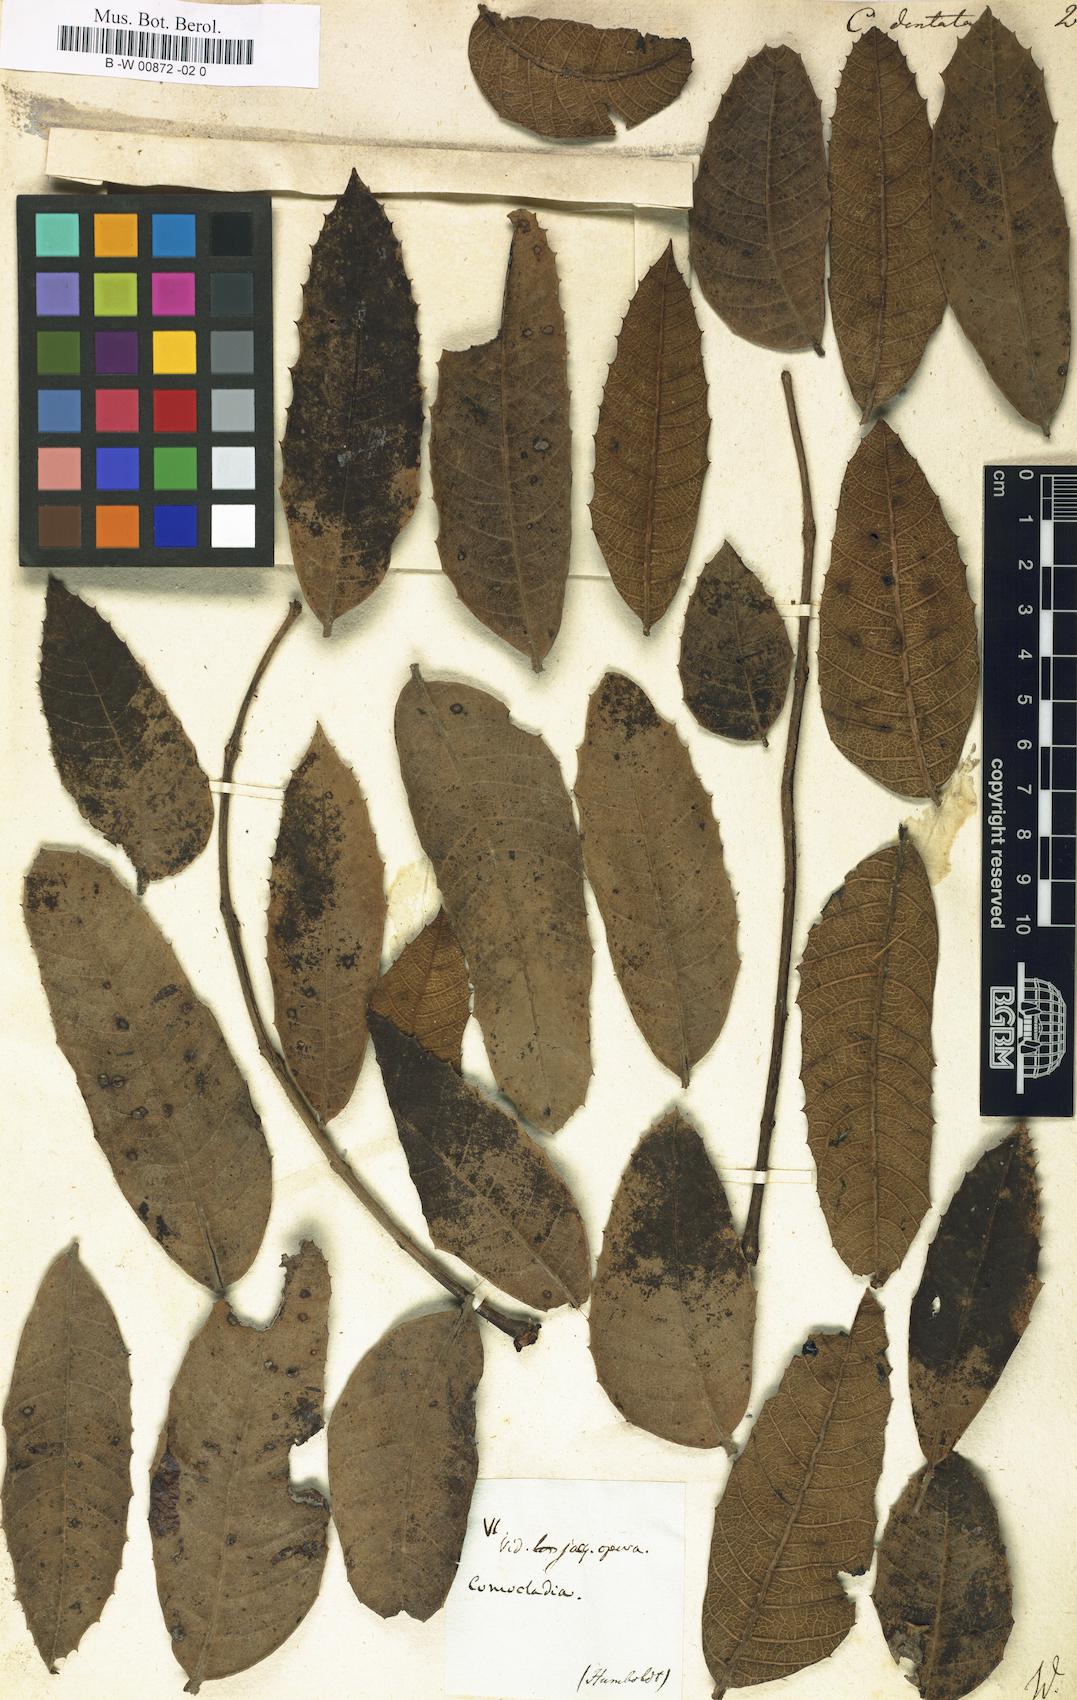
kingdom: Plantae
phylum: Tracheophyta
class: Magnoliopsida
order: Sapindales
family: Anacardiaceae
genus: Comocladia
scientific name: Comocladia dentata
